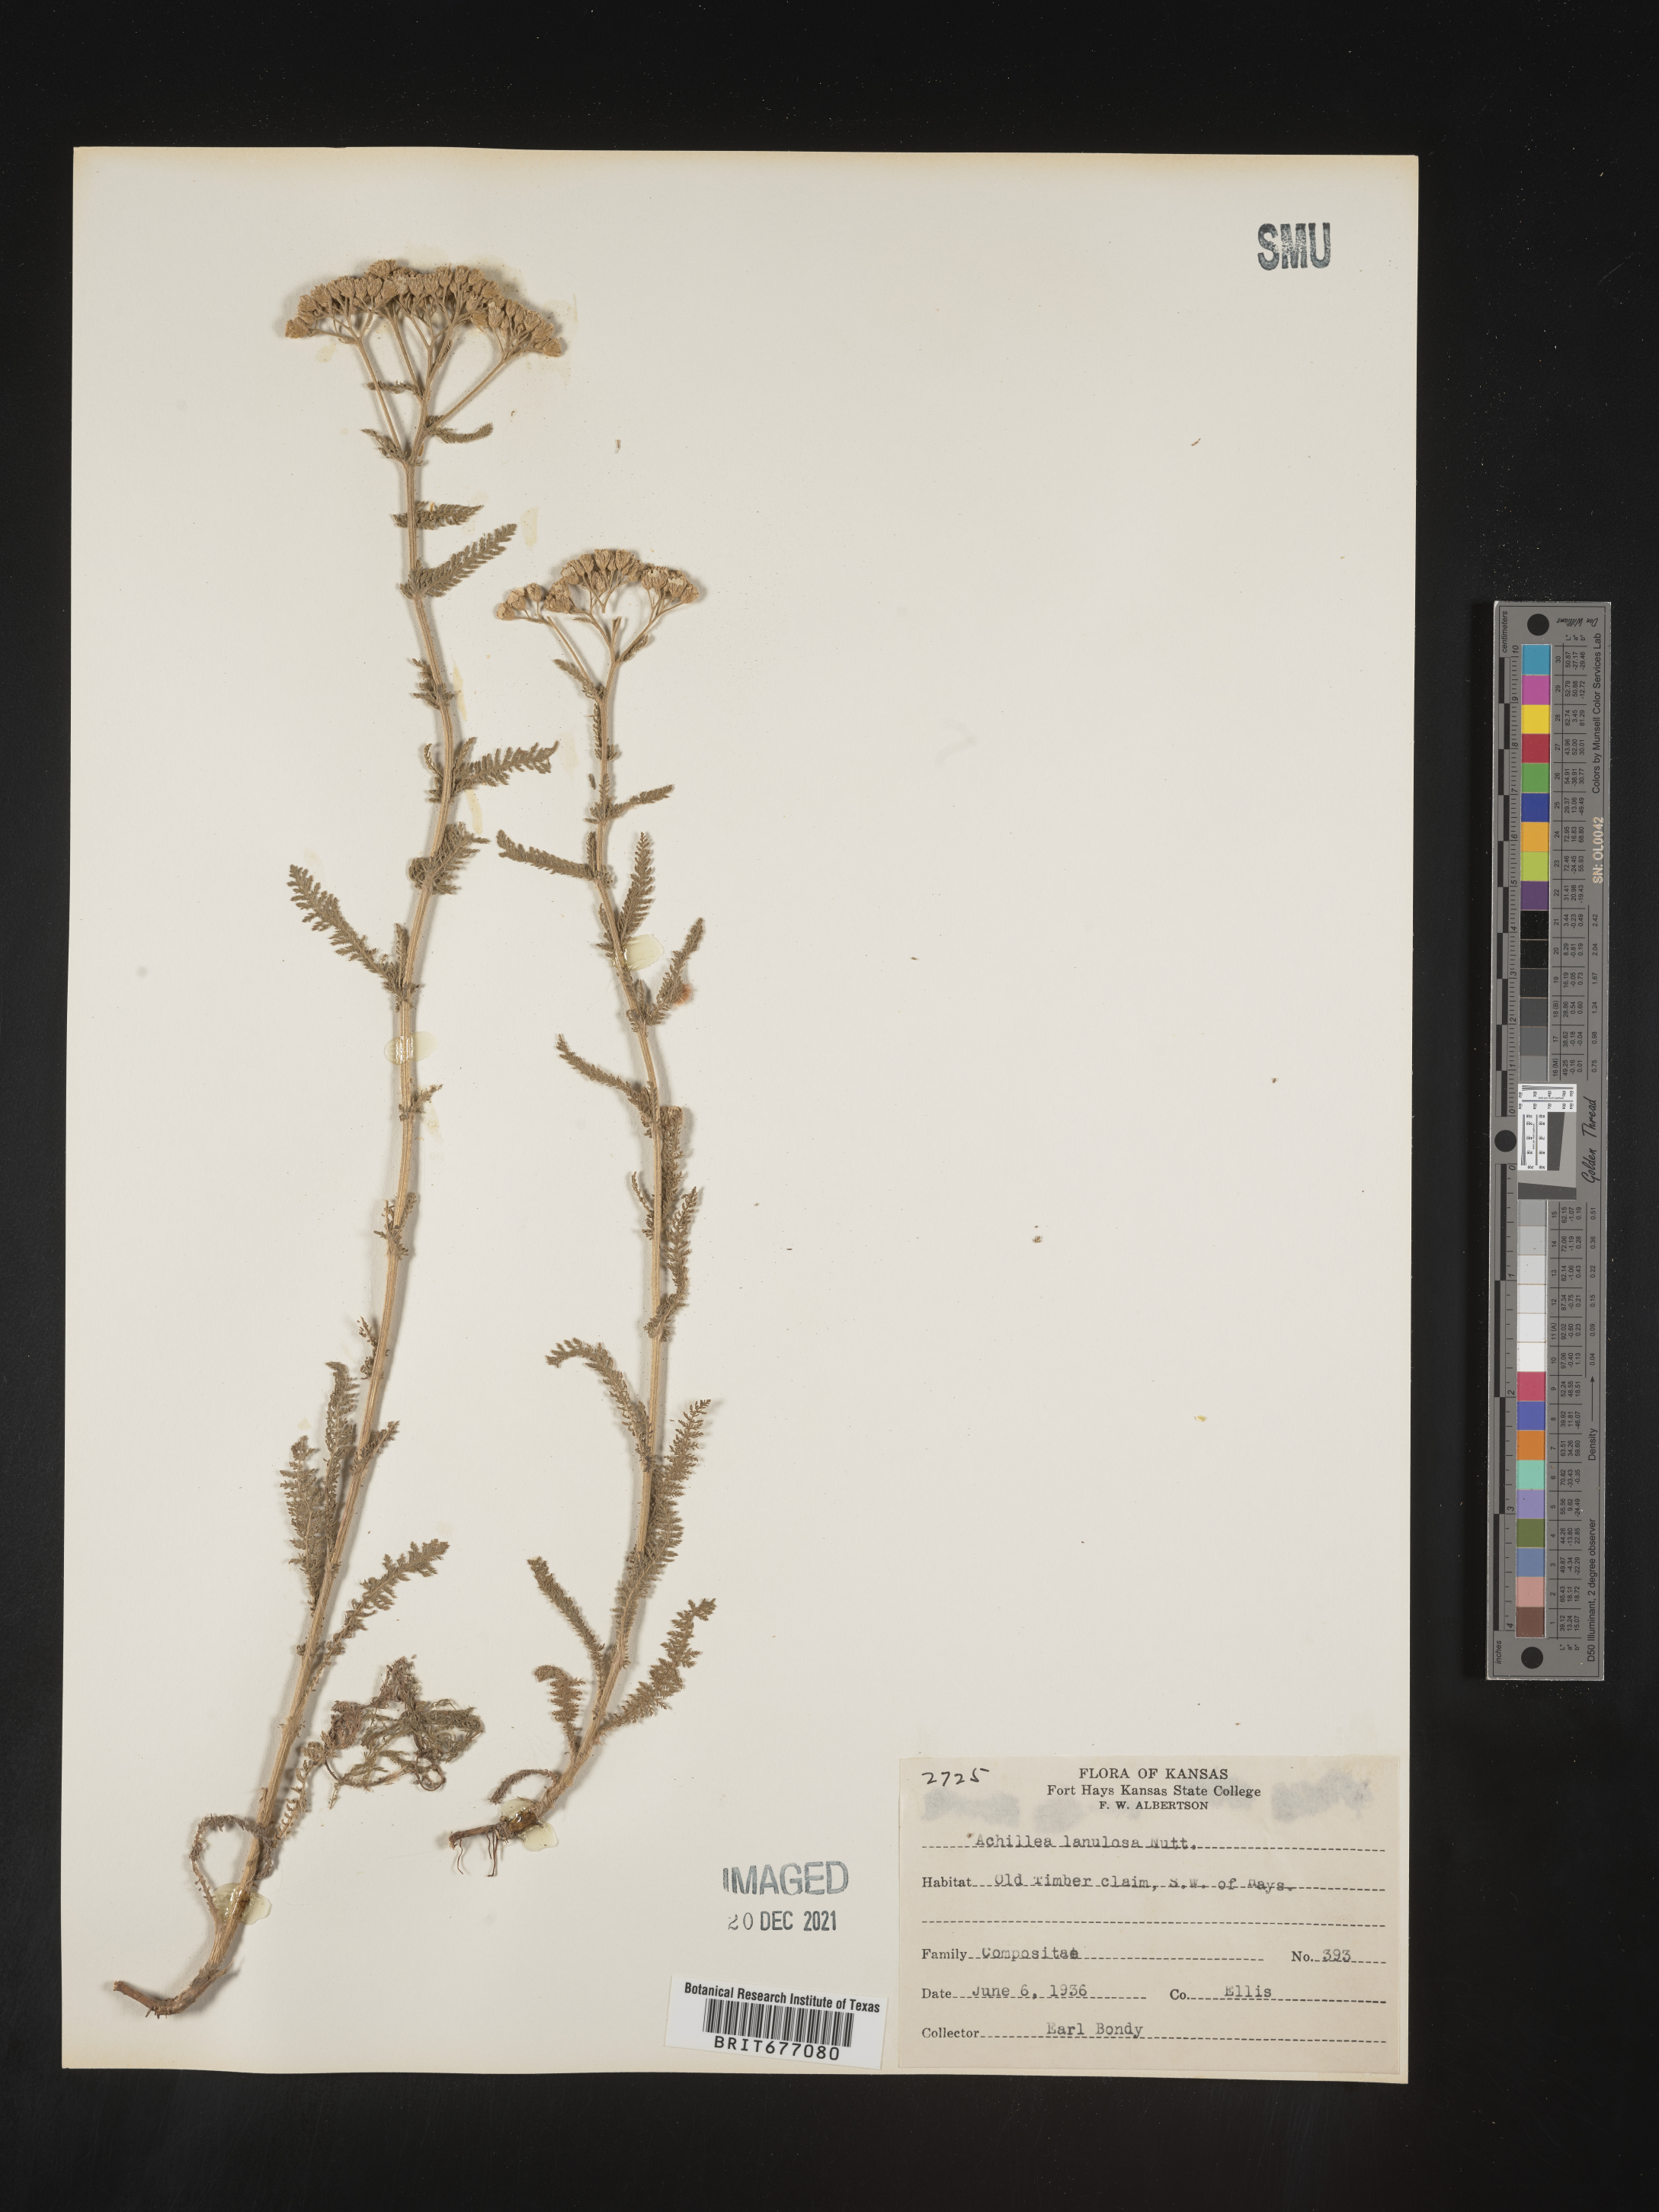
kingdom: Plantae
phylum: Tracheophyta
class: Magnoliopsida
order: Asterales
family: Asteraceae
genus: Achillea
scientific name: Achillea millefolium
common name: Yarrow
